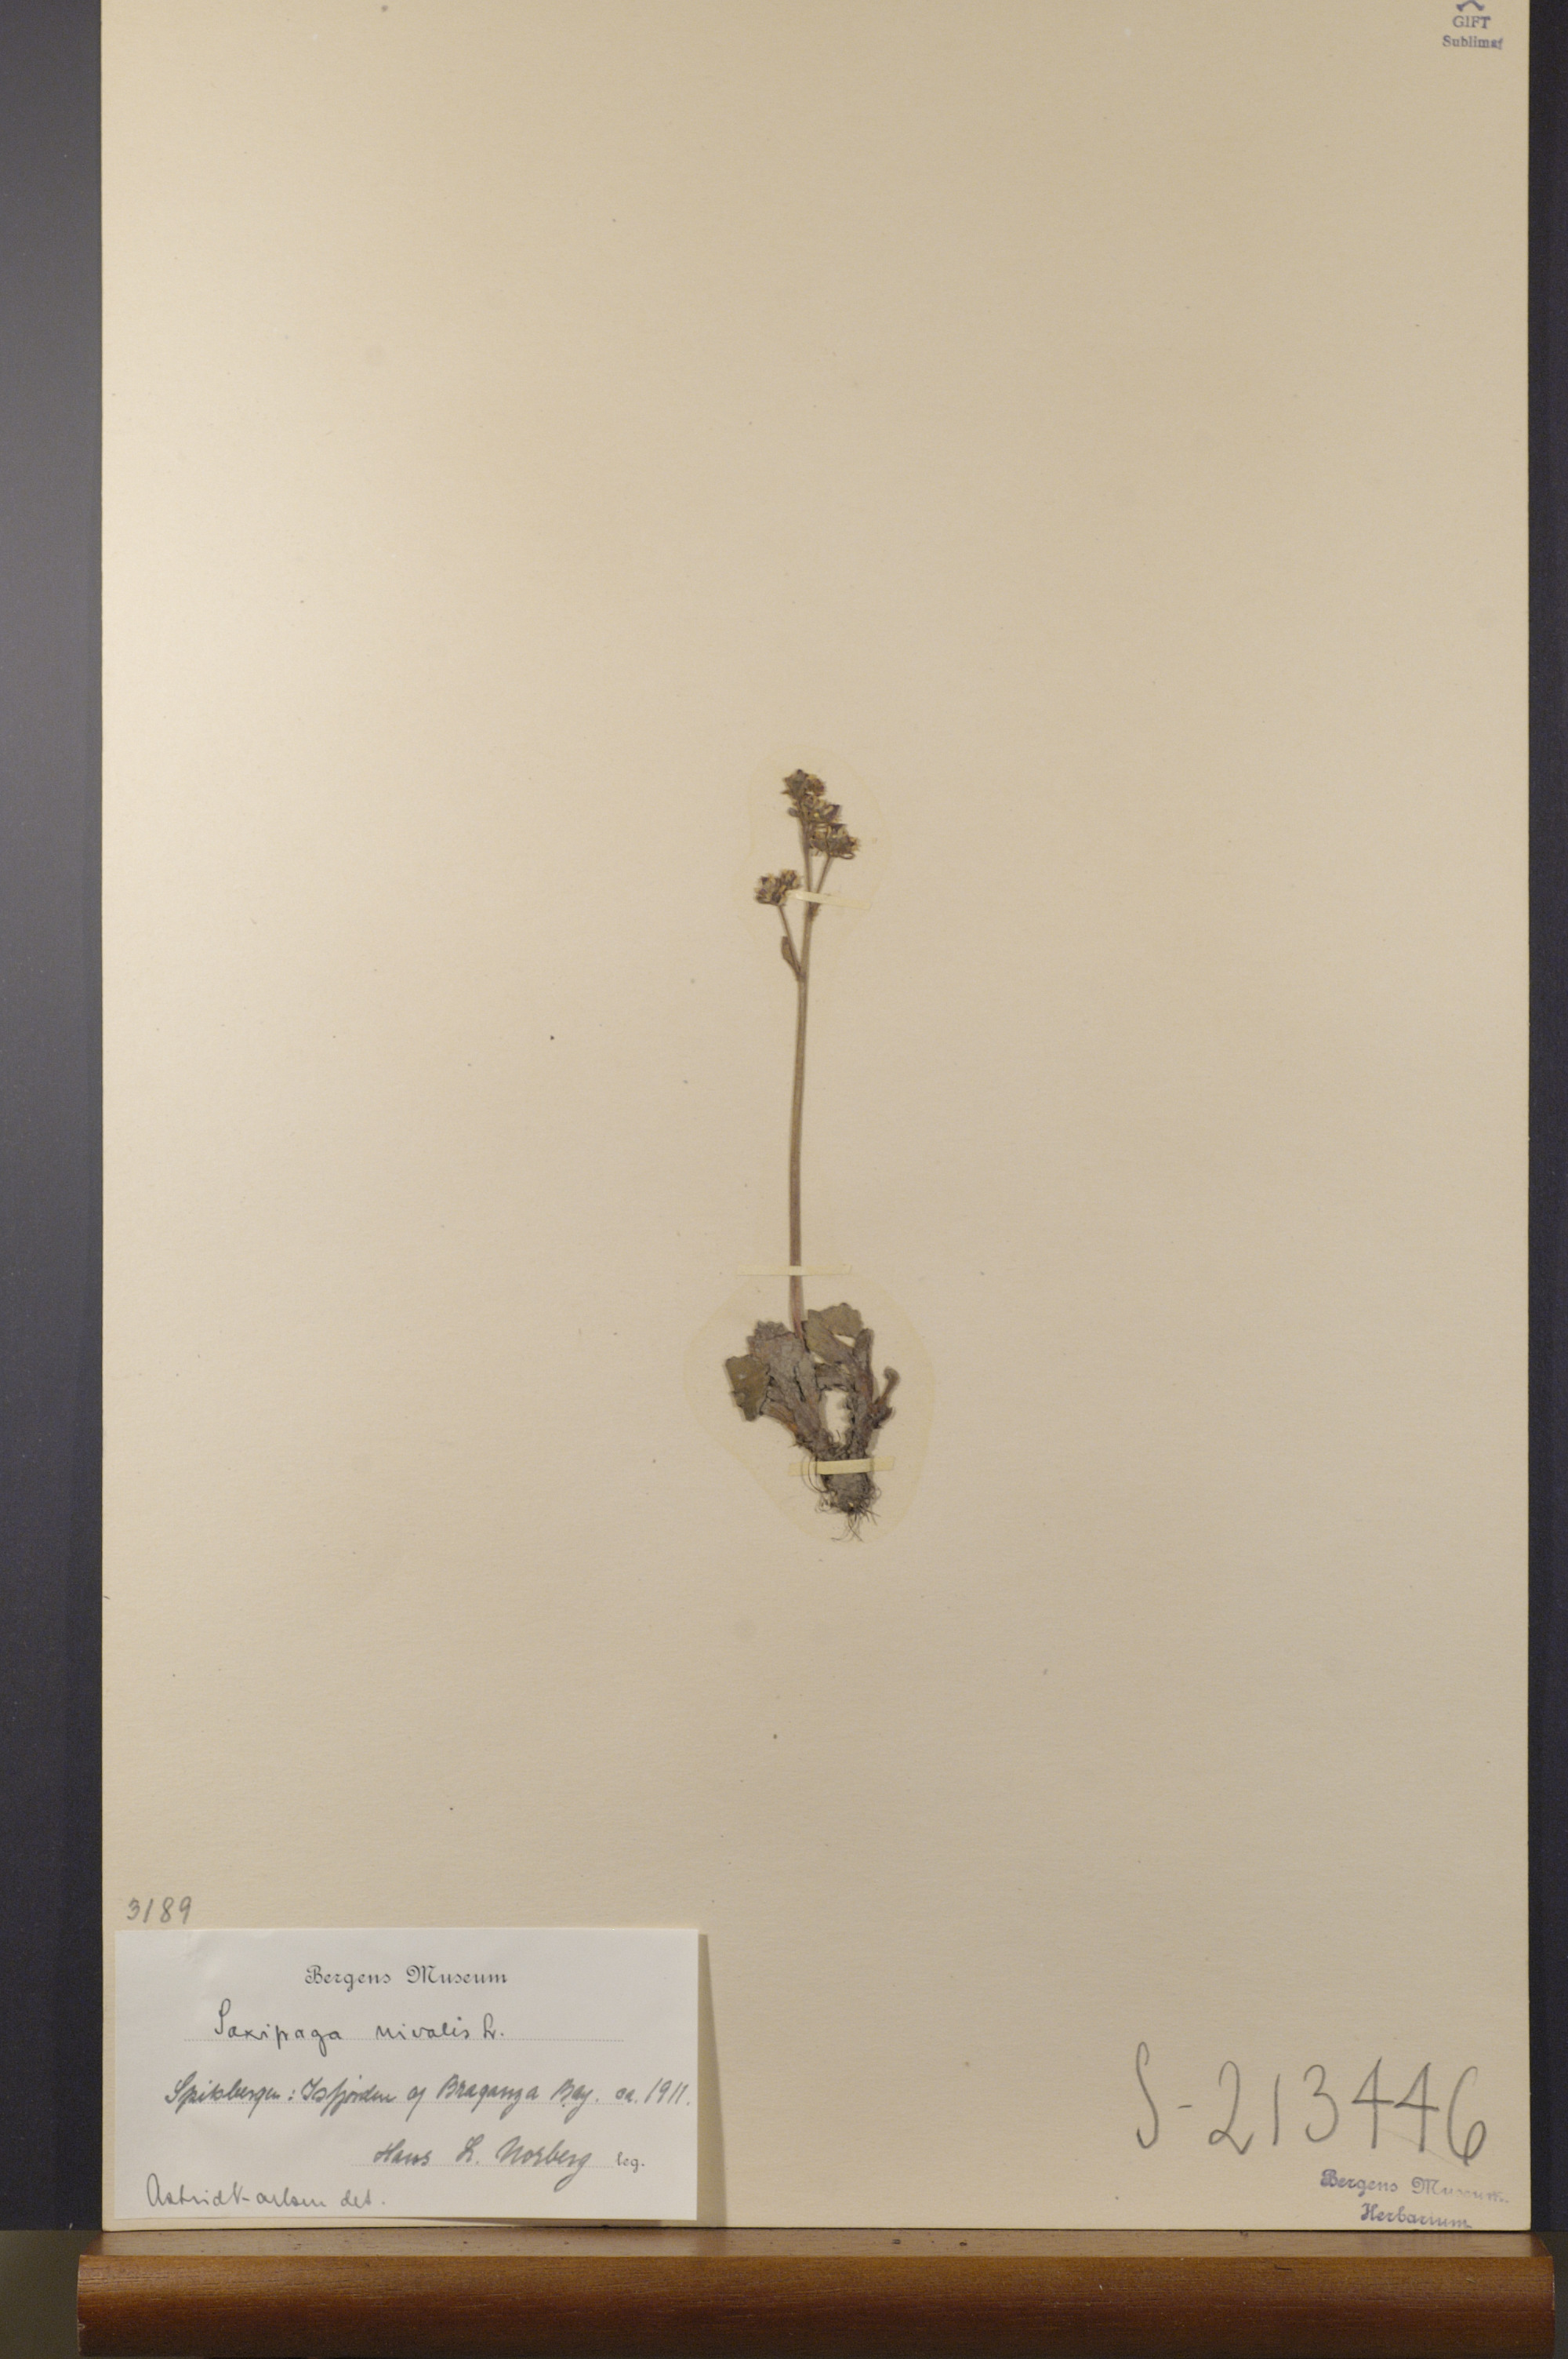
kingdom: Plantae
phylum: Tracheophyta
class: Magnoliopsida
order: Saxifragales
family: Saxifragaceae
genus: Micranthes
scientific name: Micranthes nivalis
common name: Alpine saxifrage
